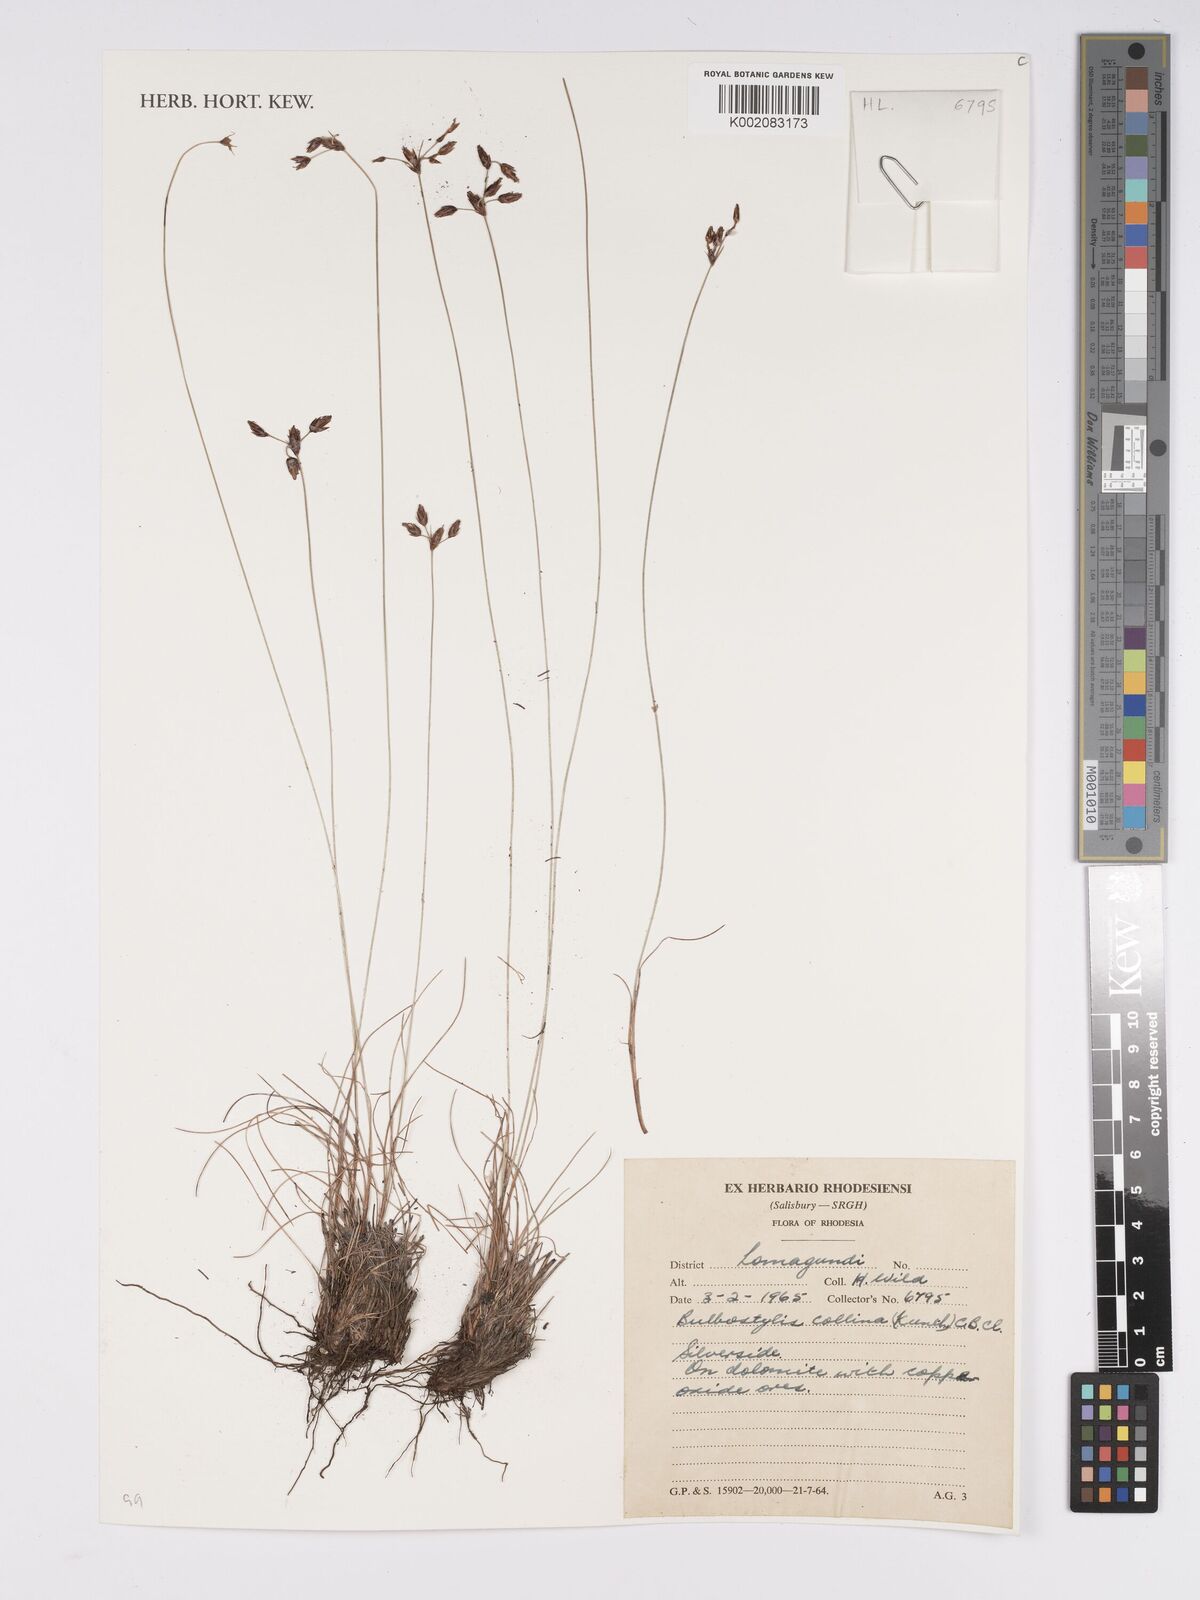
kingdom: Plantae
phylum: Tracheophyta
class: Liliopsida
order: Poales
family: Cyperaceae
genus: Bulbostylis
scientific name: Bulbostylis contexta
